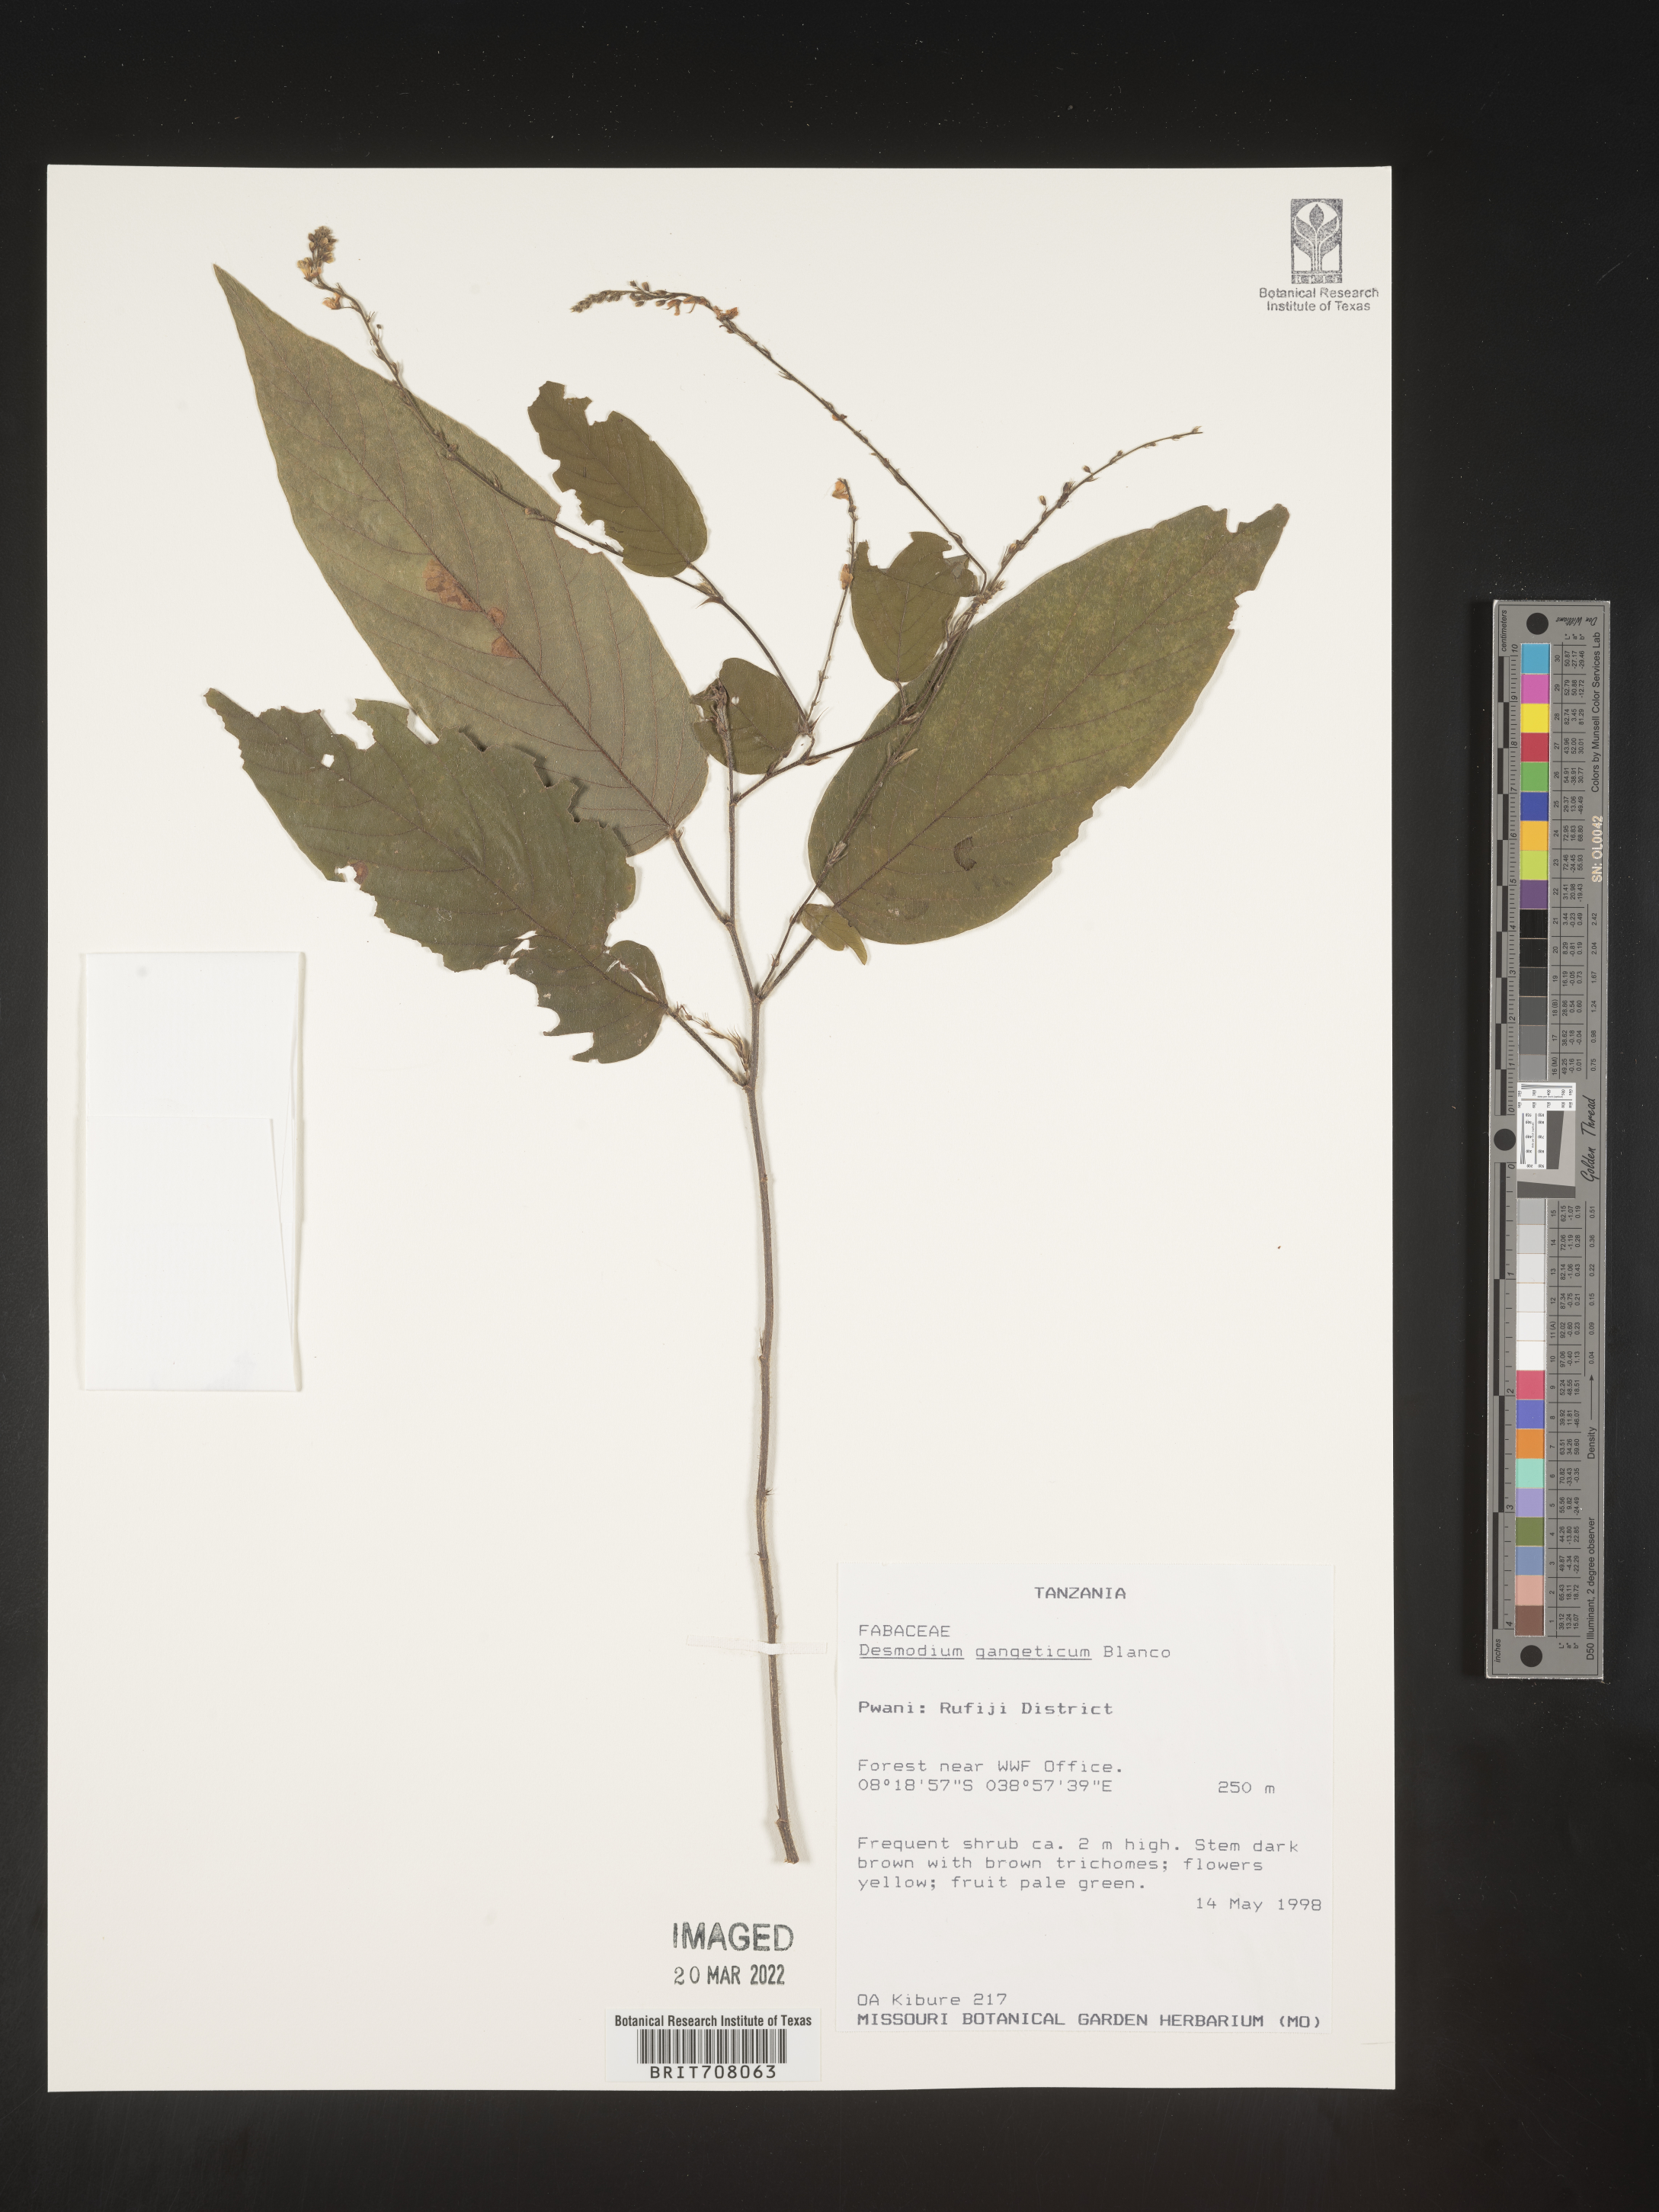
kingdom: Plantae
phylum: Tracheophyta
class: Magnoliopsida
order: Fabales
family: Fabaceae
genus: Desmodium
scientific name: Desmodium
